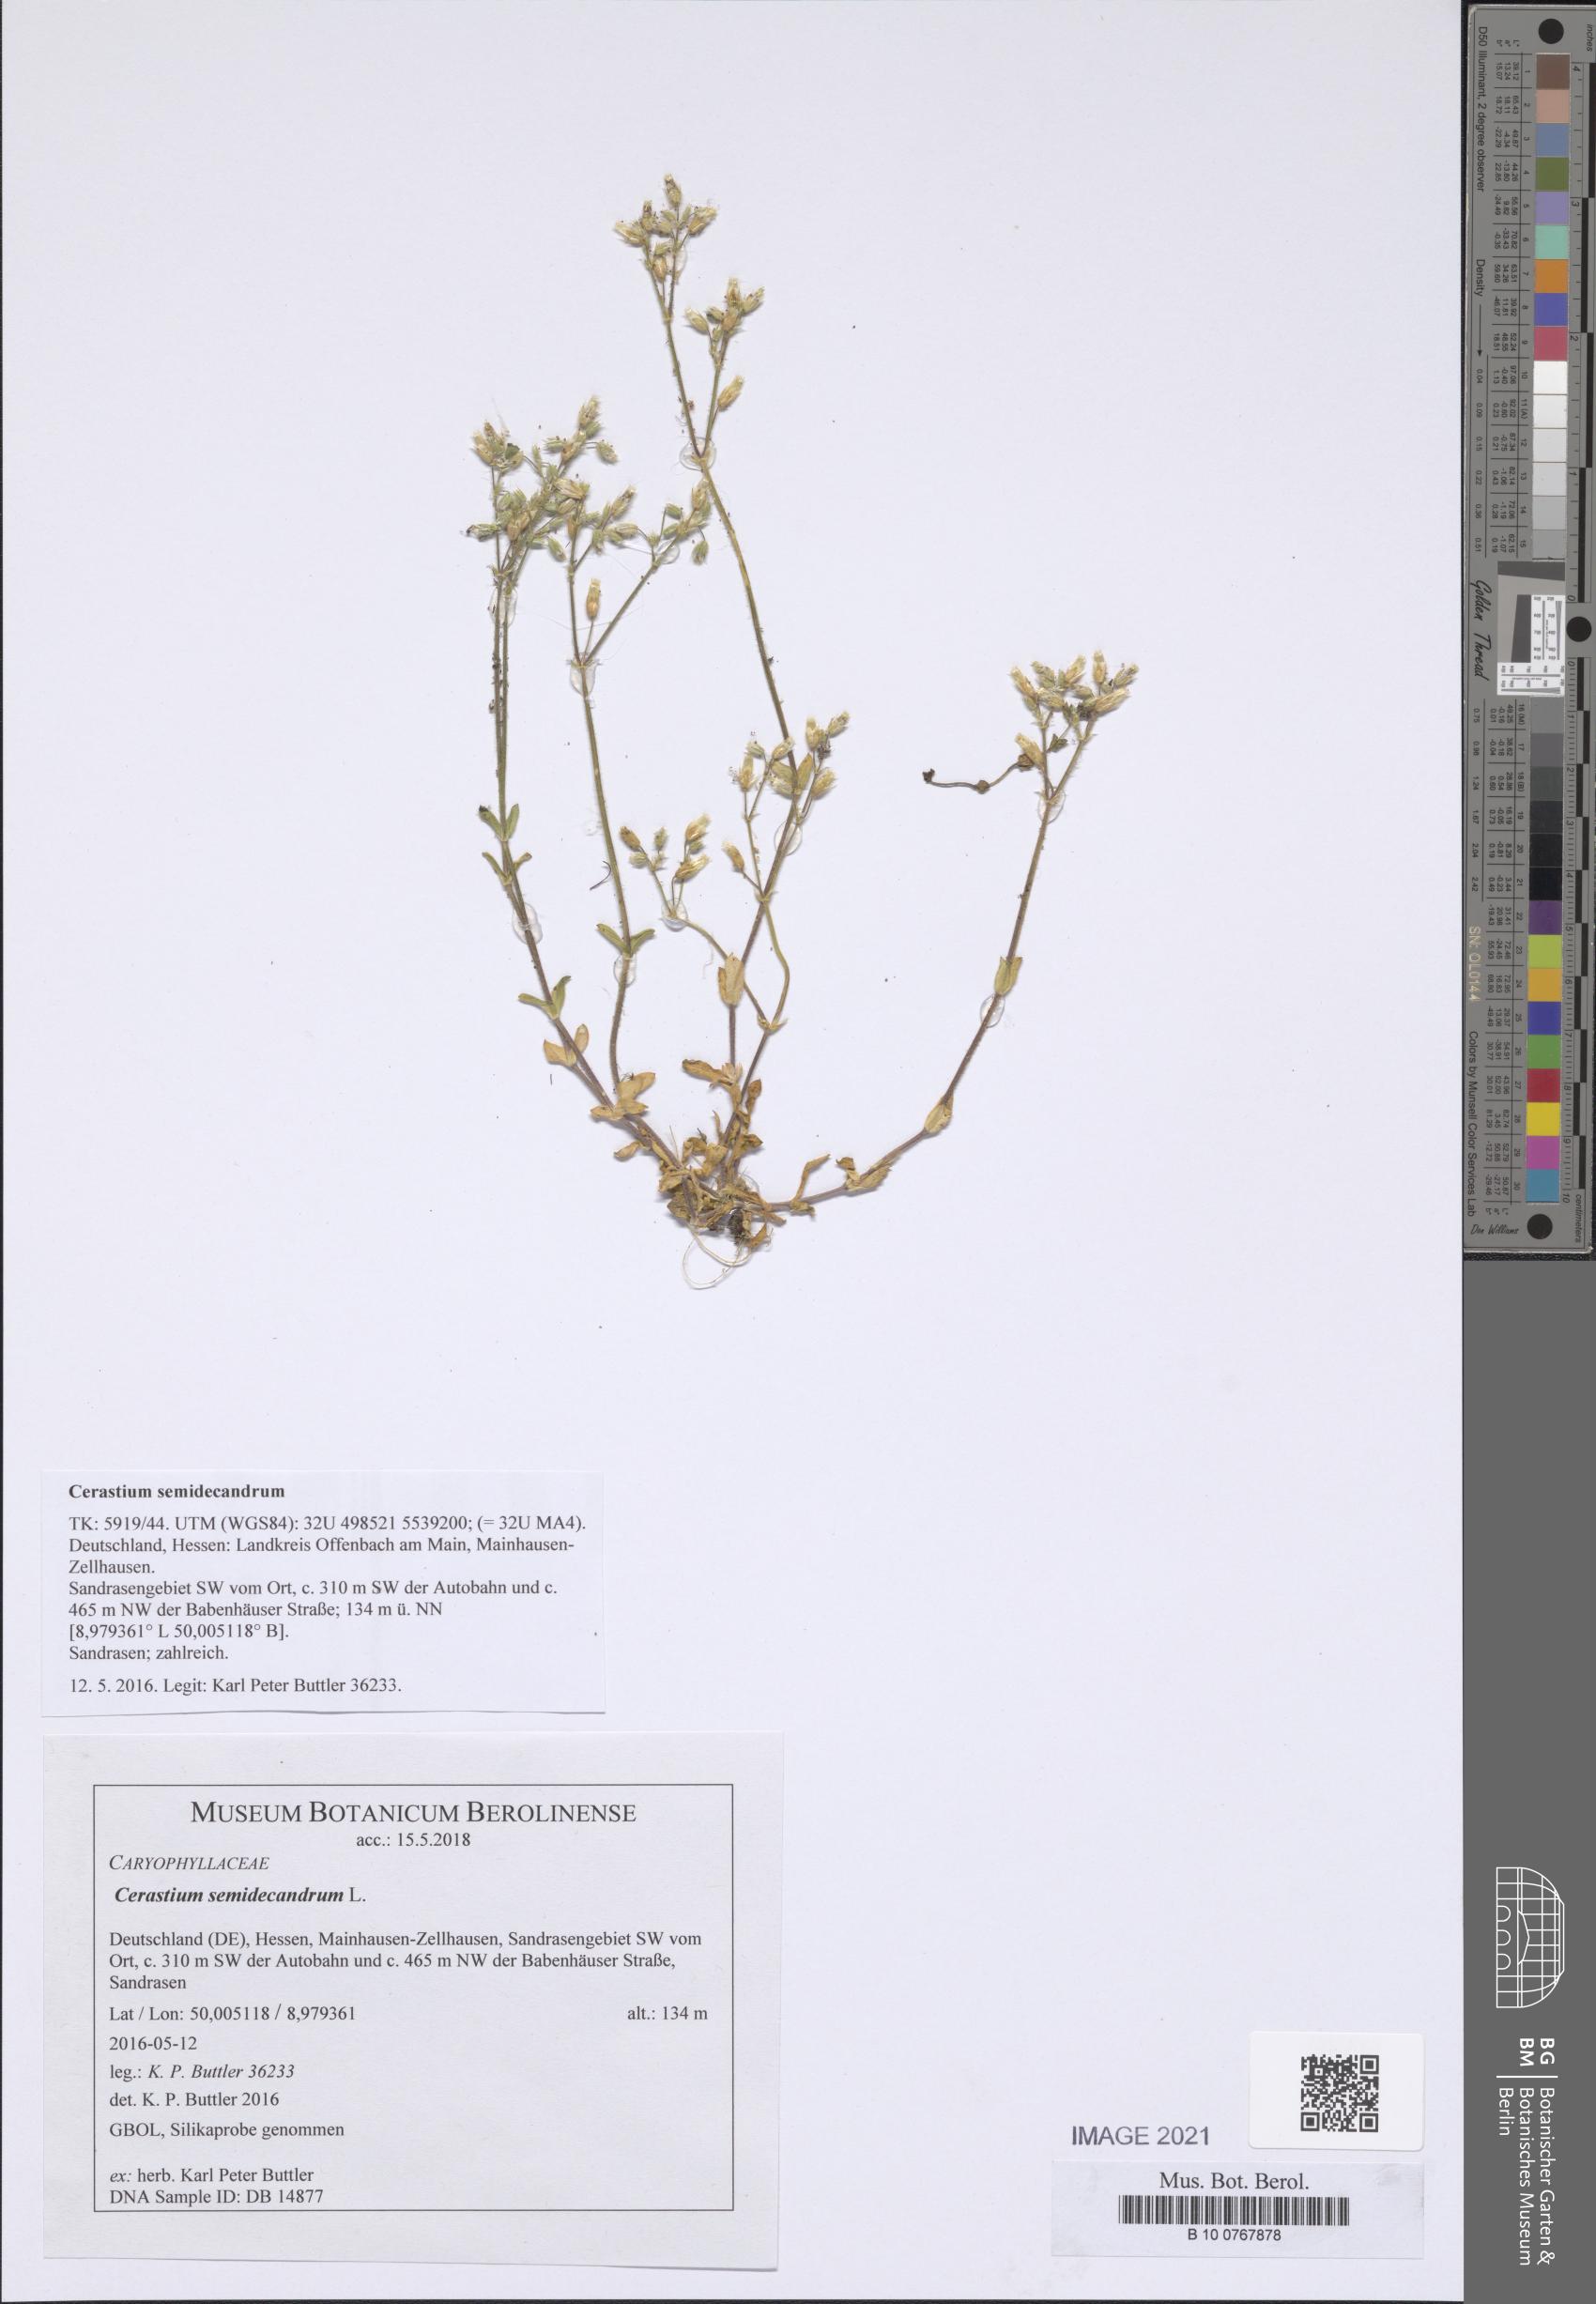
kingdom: Plantae
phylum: Tracheophyta
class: Magnoliopsida
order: Caryophyllales
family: Caryophyllaceae
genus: Cerastium
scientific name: Cerastium semidecandrum
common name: Little mouse-ear
